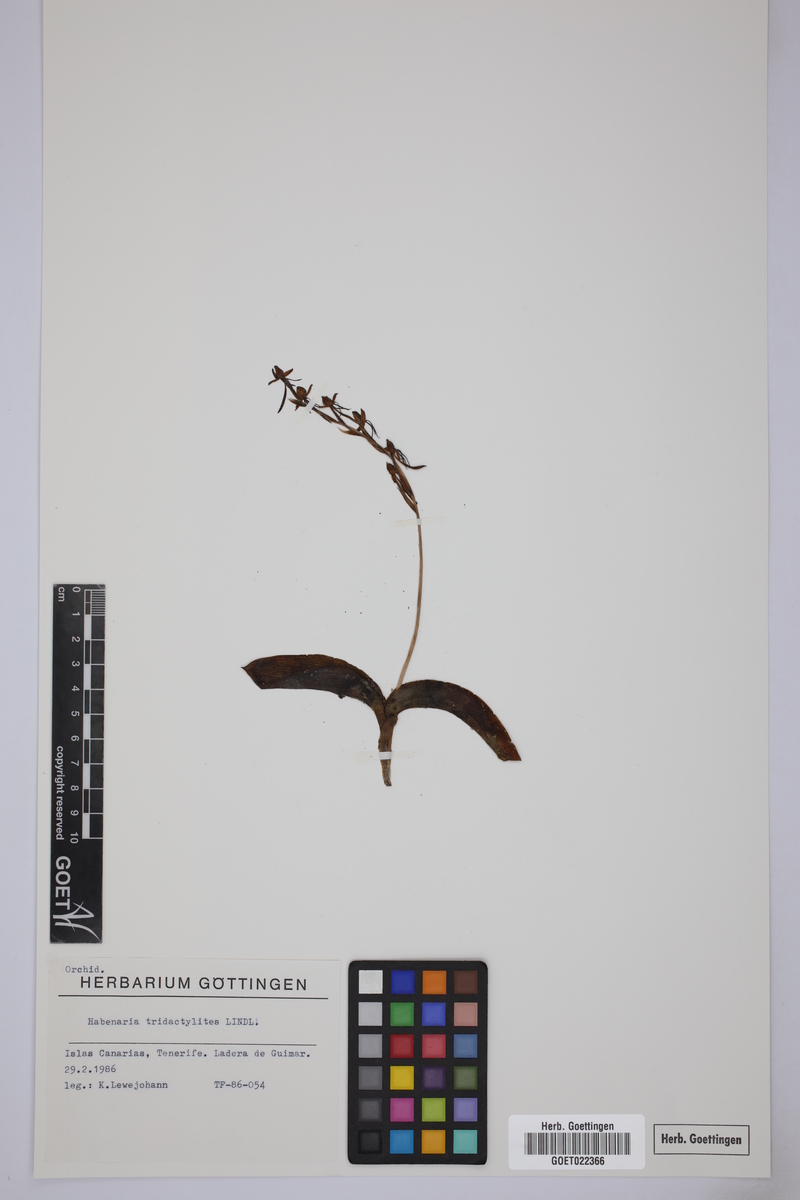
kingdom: Plantae
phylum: Tracheophyta
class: Liliopsida
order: Asparagales
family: Orchidaceae
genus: Habenaria
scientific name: Habenaria tridactylites
